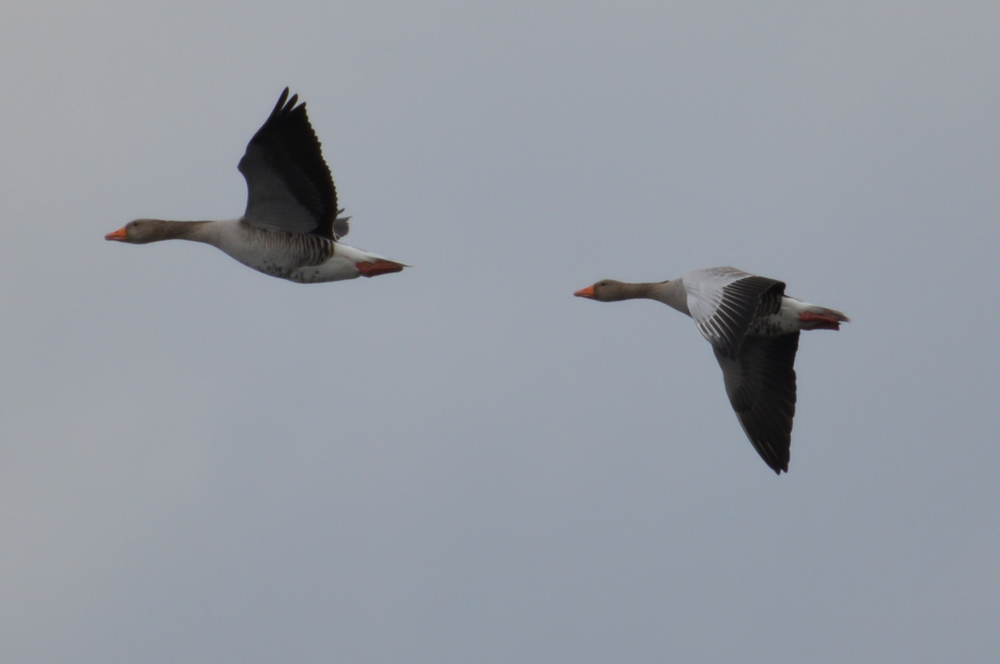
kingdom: Animalia
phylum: Chordata
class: Aves
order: Anseriformes
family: Anatidae
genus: Anser
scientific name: Anser anser
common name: Greylag goose
